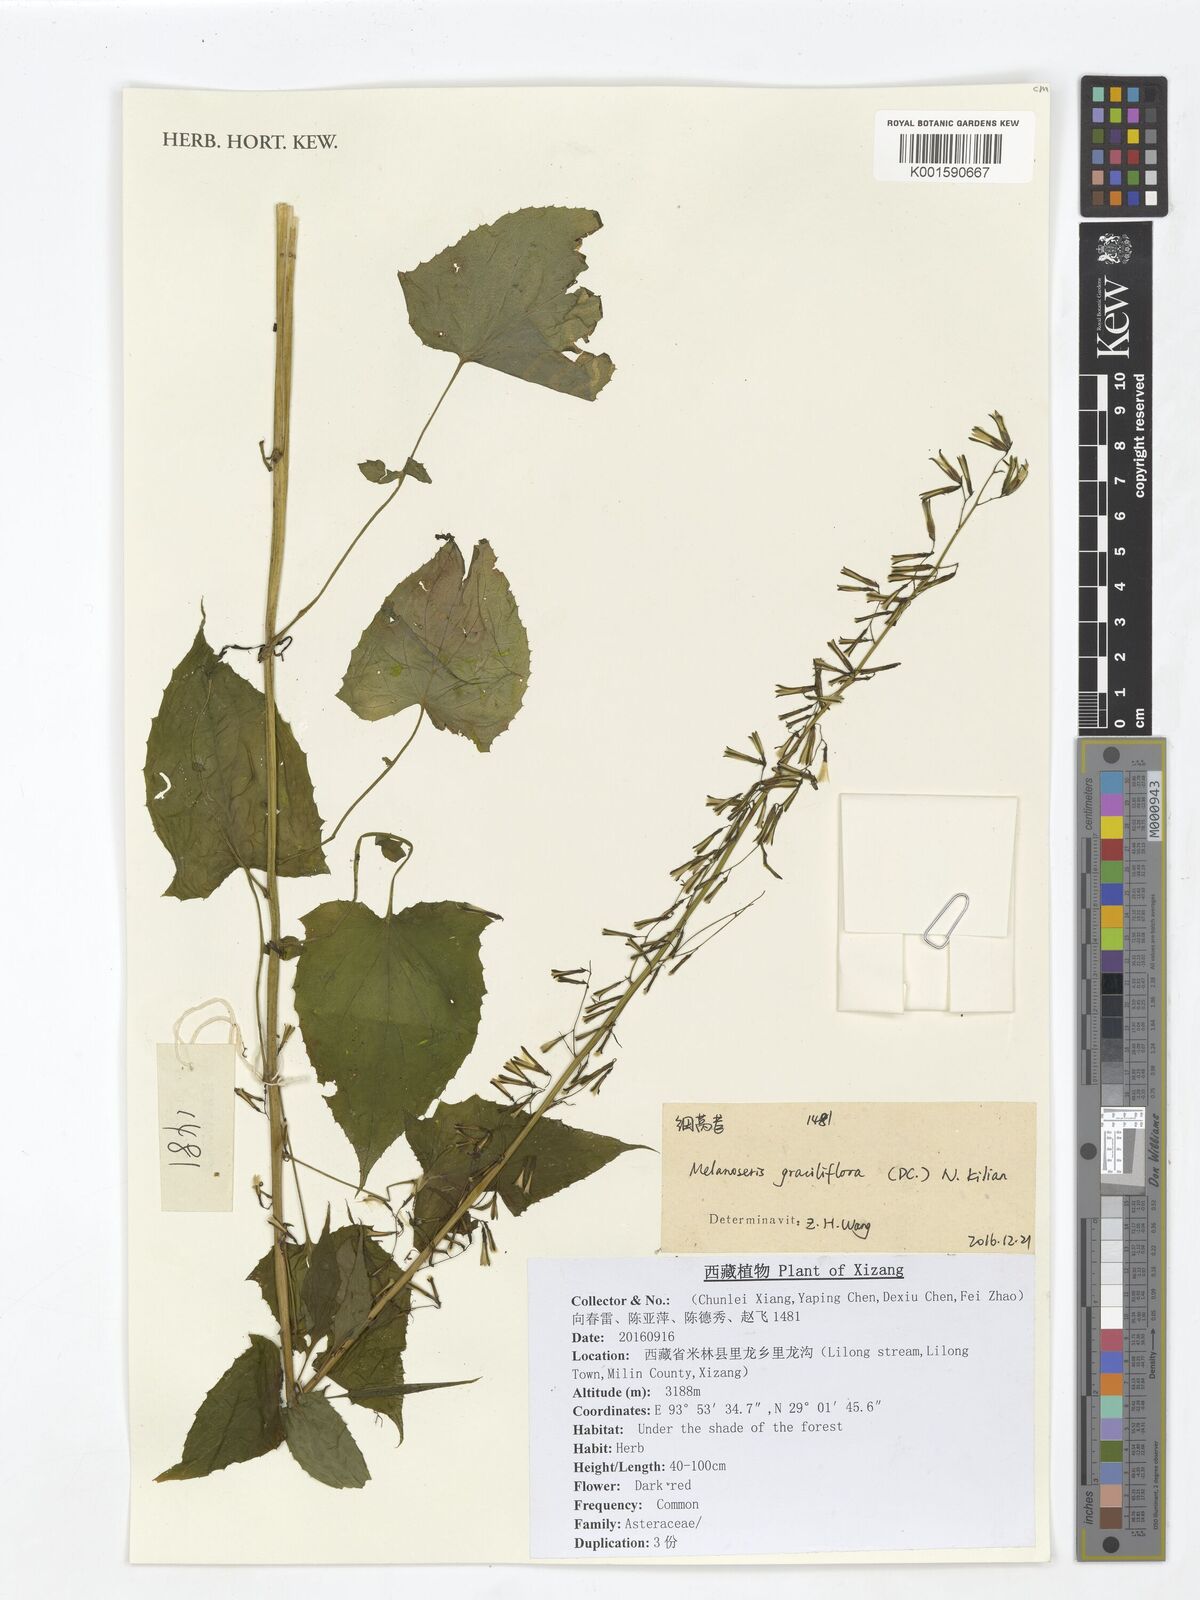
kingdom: Plantae
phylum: Tracheophyta
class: Magnoliopsida
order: Asterales
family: Asteraceae
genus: Melanoseris
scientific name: Melanoseris graciliflora
